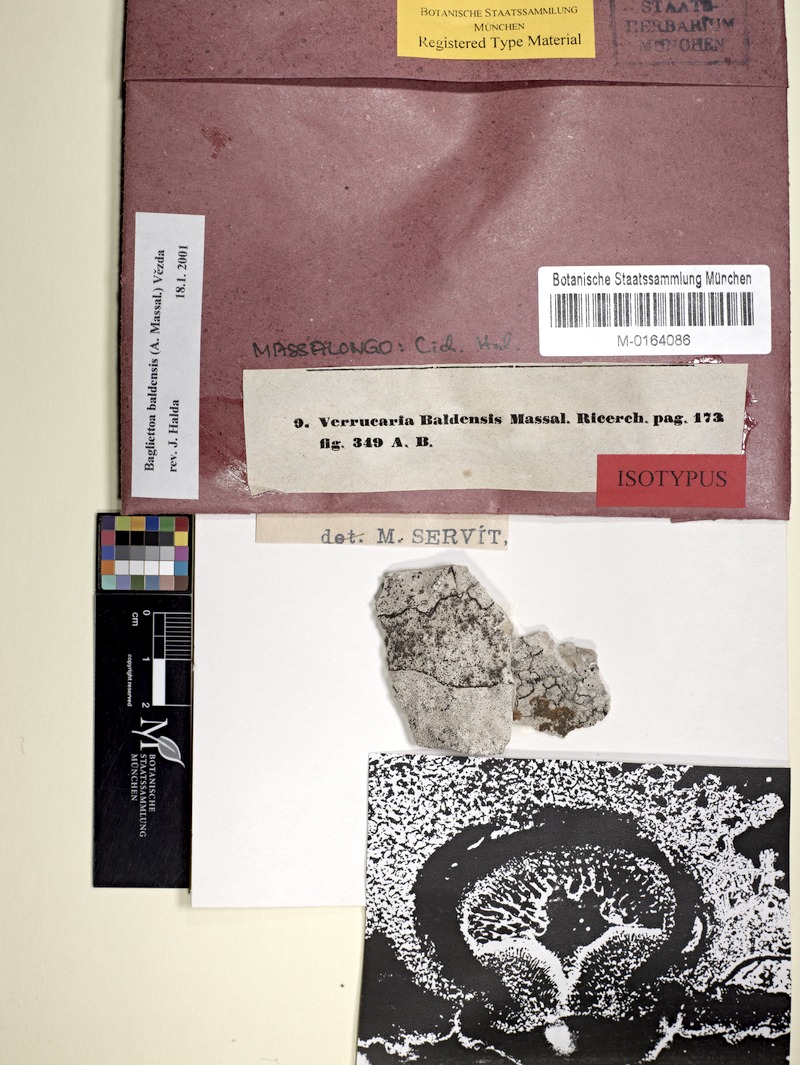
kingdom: Fungi
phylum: Ascomycota
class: Eurotiomycetes
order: Verrucariales
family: Verrucariaceae
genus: Bagliettoa
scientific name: Bagliettoa baldensis
